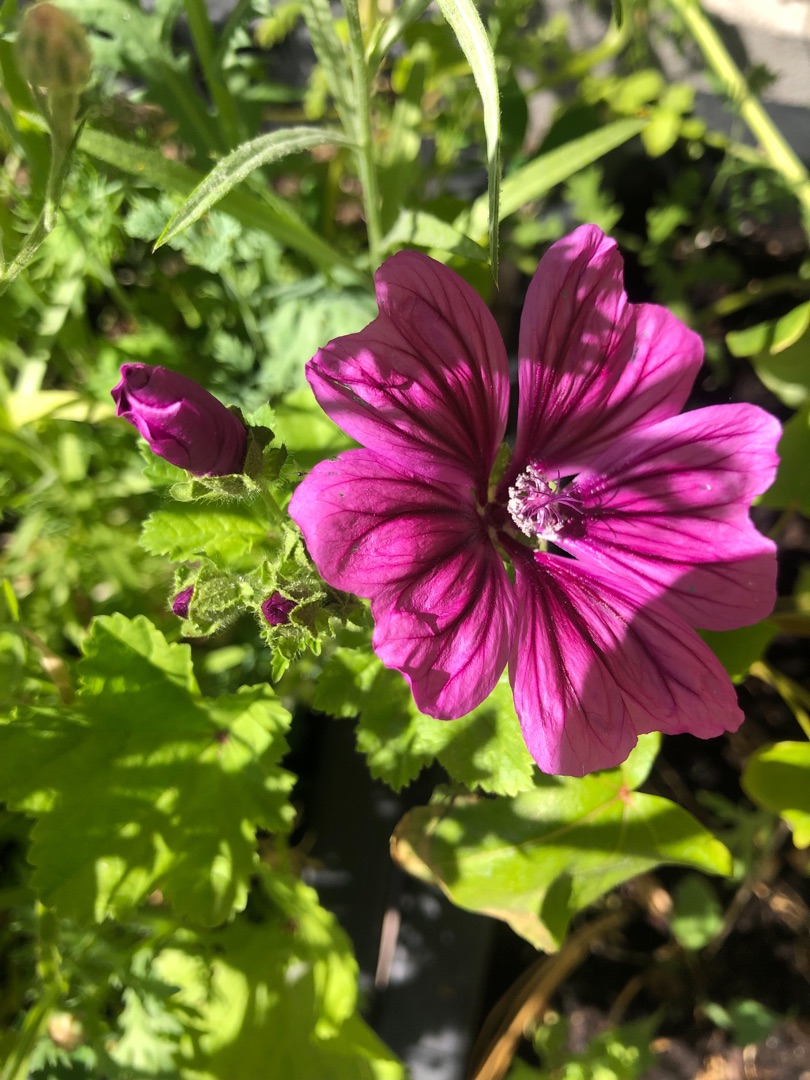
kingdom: Plantae
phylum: Tracheophyta
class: Magnoliopsida
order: Malvales
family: Malvaceae
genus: Malva
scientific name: Malva sylvestris
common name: Almindelig katost
